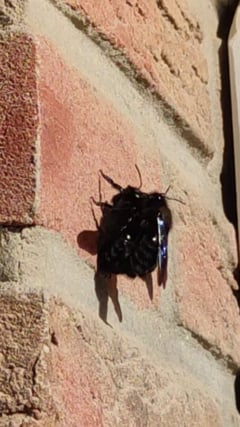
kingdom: Animalia
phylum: Arthropoda
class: Insecta
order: Hymenoptera
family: Apidae
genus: Xylocopa
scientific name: Xylocopa violacea
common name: Violet carpenter bee
